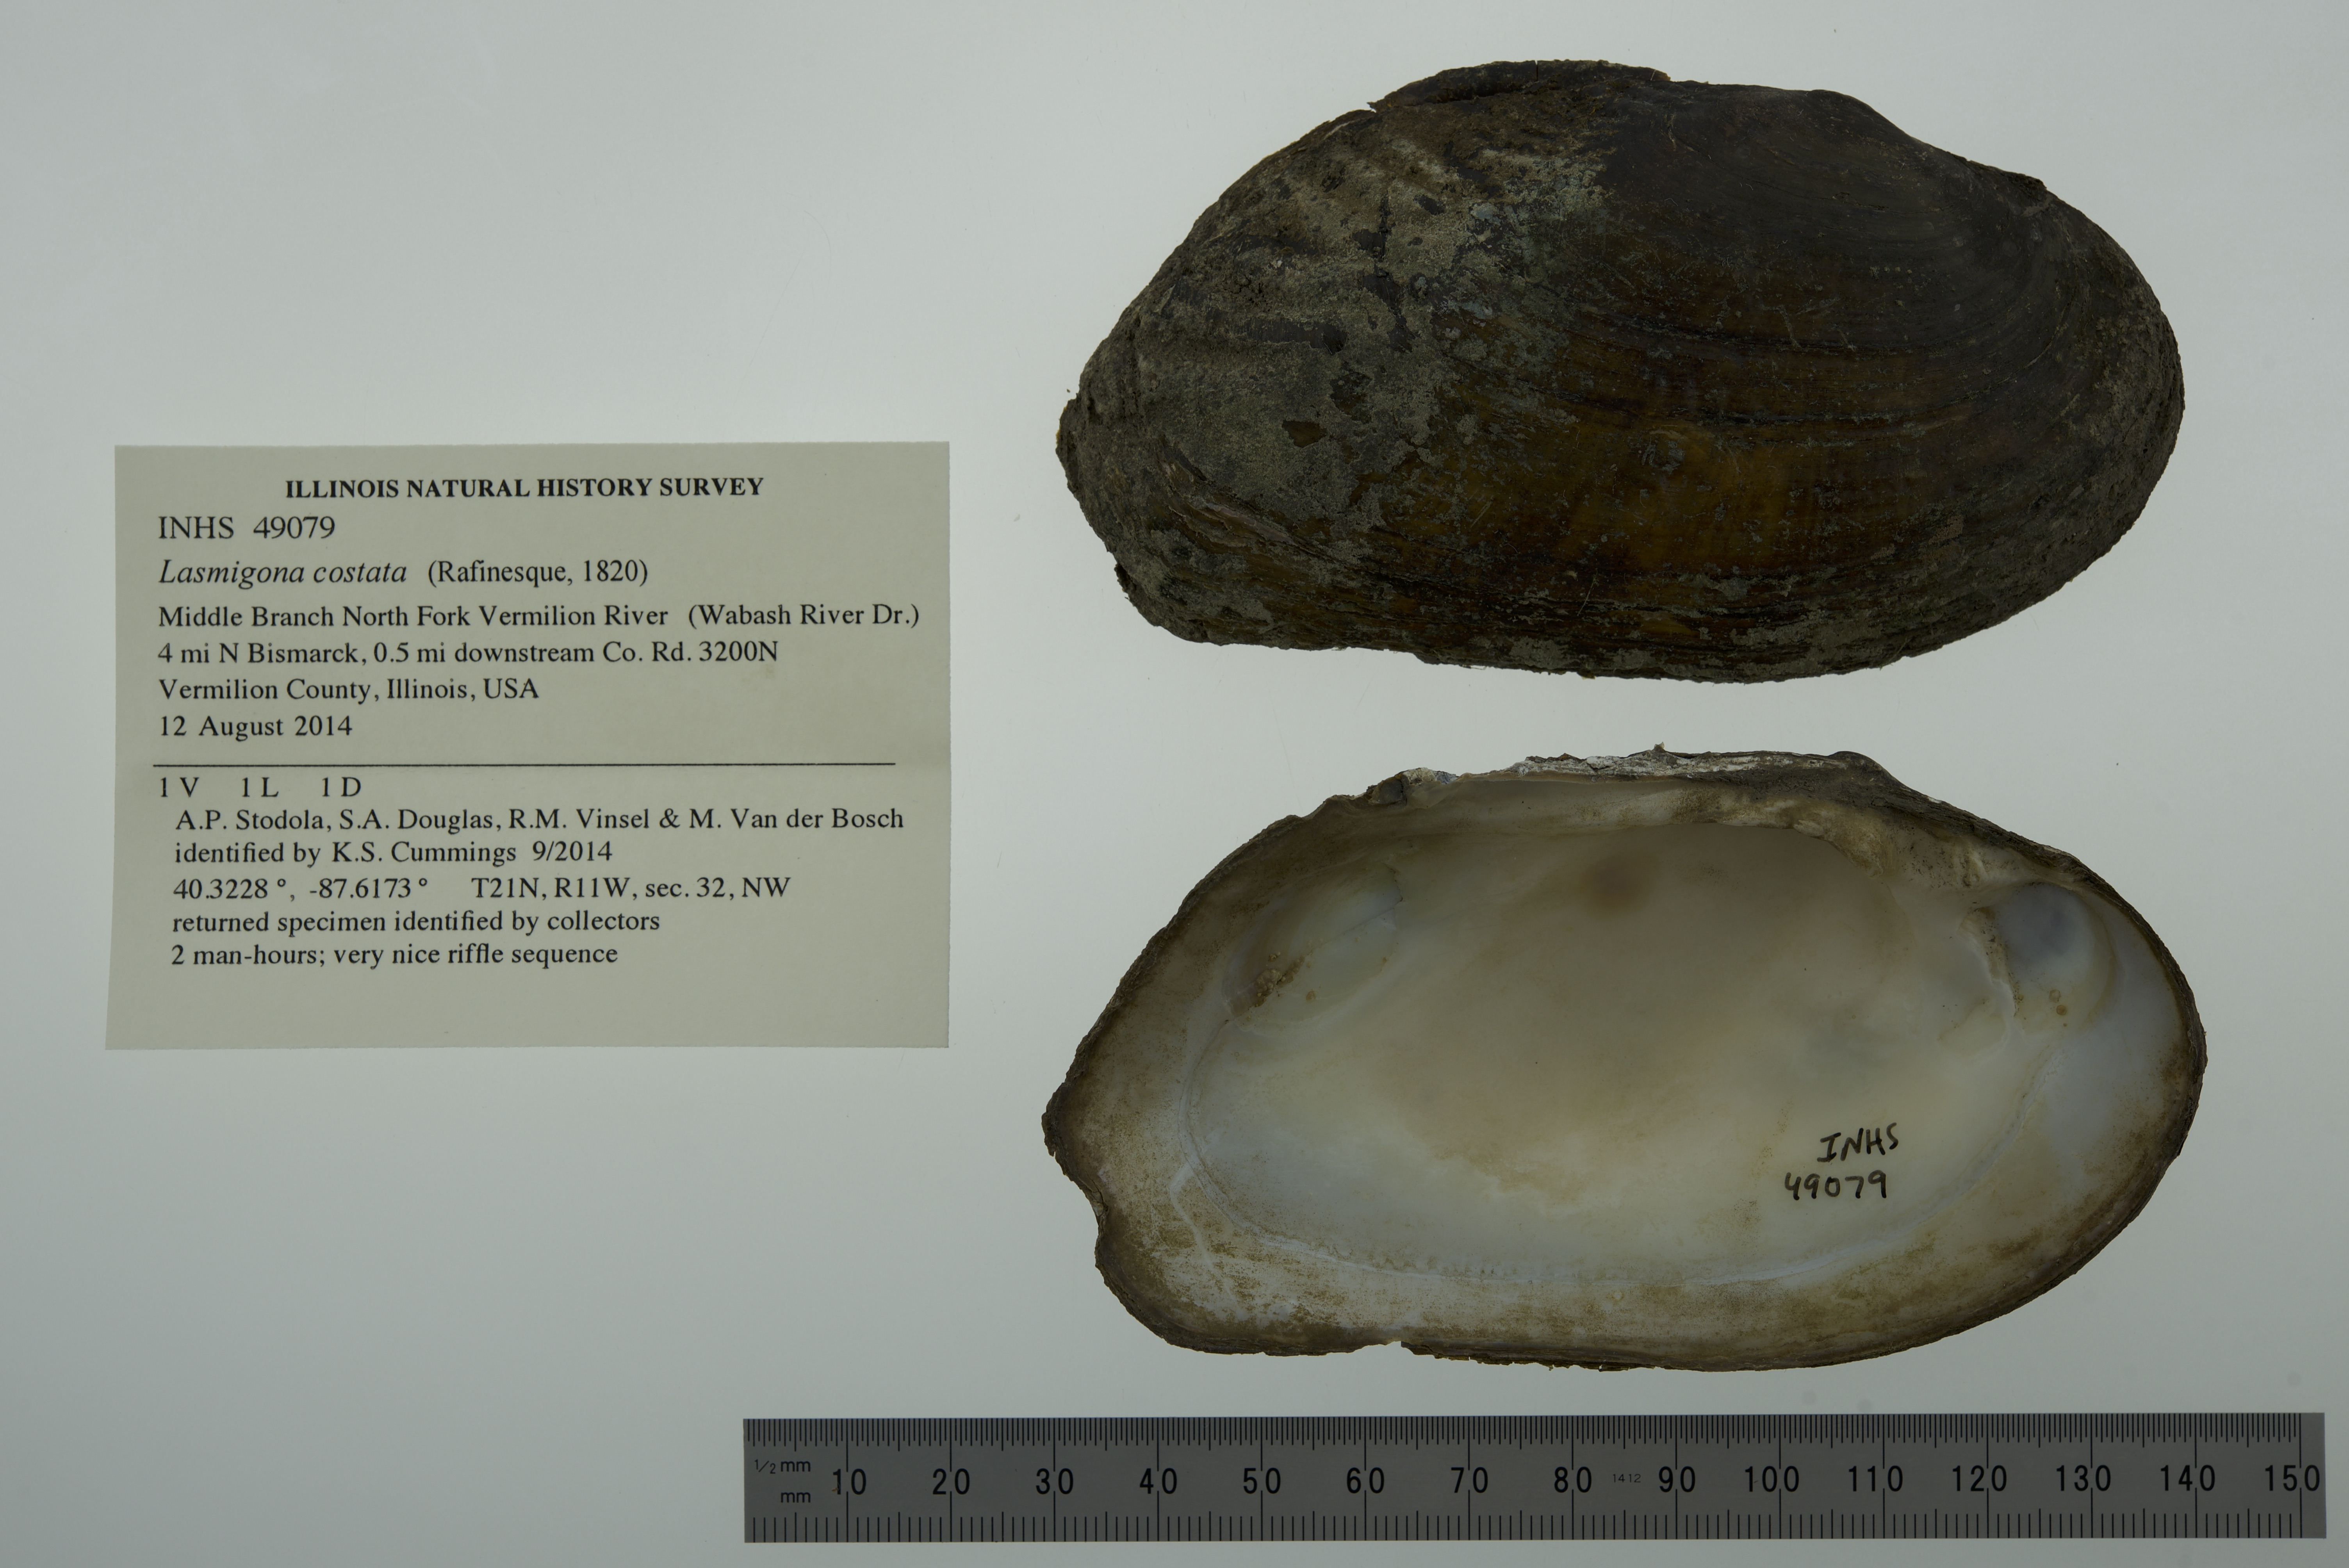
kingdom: Animalia
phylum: Mollusca
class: Bivalvia
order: Unionida
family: Unionidae
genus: Lasmigona
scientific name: Lasmigona costata
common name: Flutedshell
